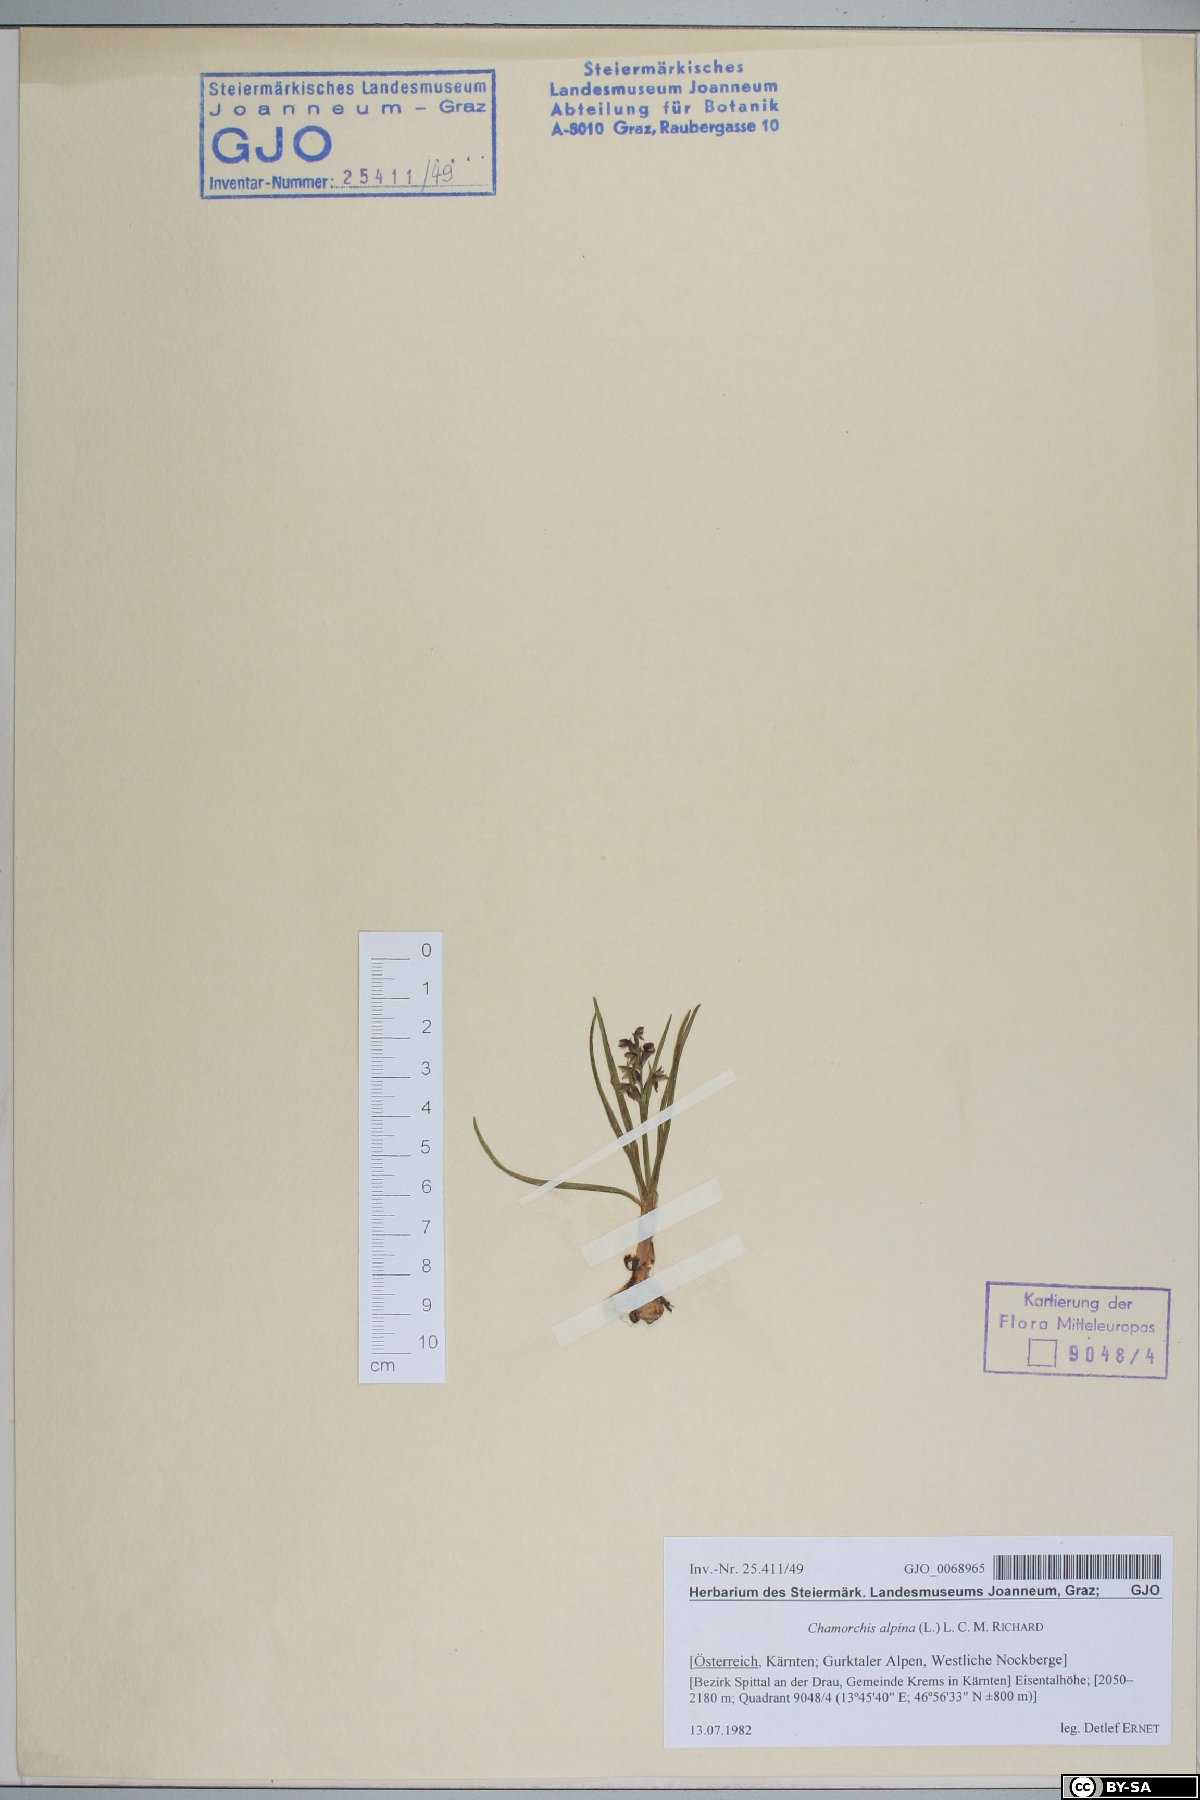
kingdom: Plantae
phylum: Tracheophyta
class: Liliopsida
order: Asparagales
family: Orchidaceae
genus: Chamorchis
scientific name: Chamorchis alpina
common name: Alpine chamorchis
